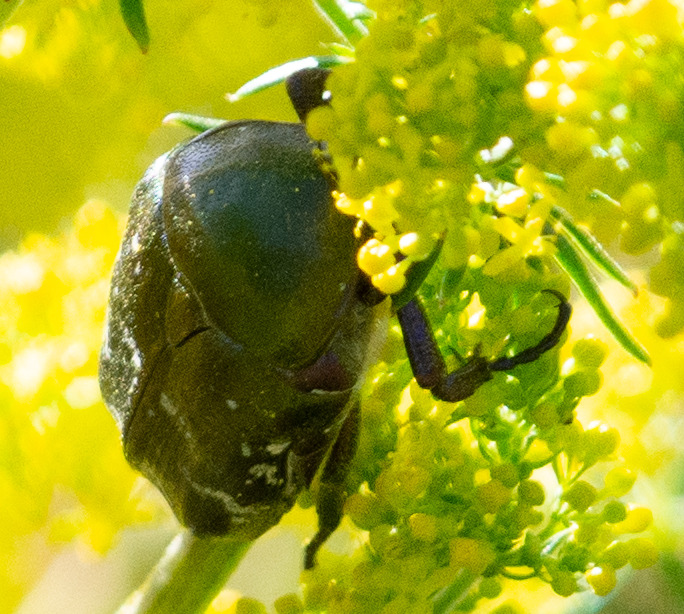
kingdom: Animalia
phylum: Arthropoda
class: Insecta
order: Coleoptera
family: Scarabaeidae
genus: Protaetia
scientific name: Protaetia cuprea
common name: Kobberguldbasse
